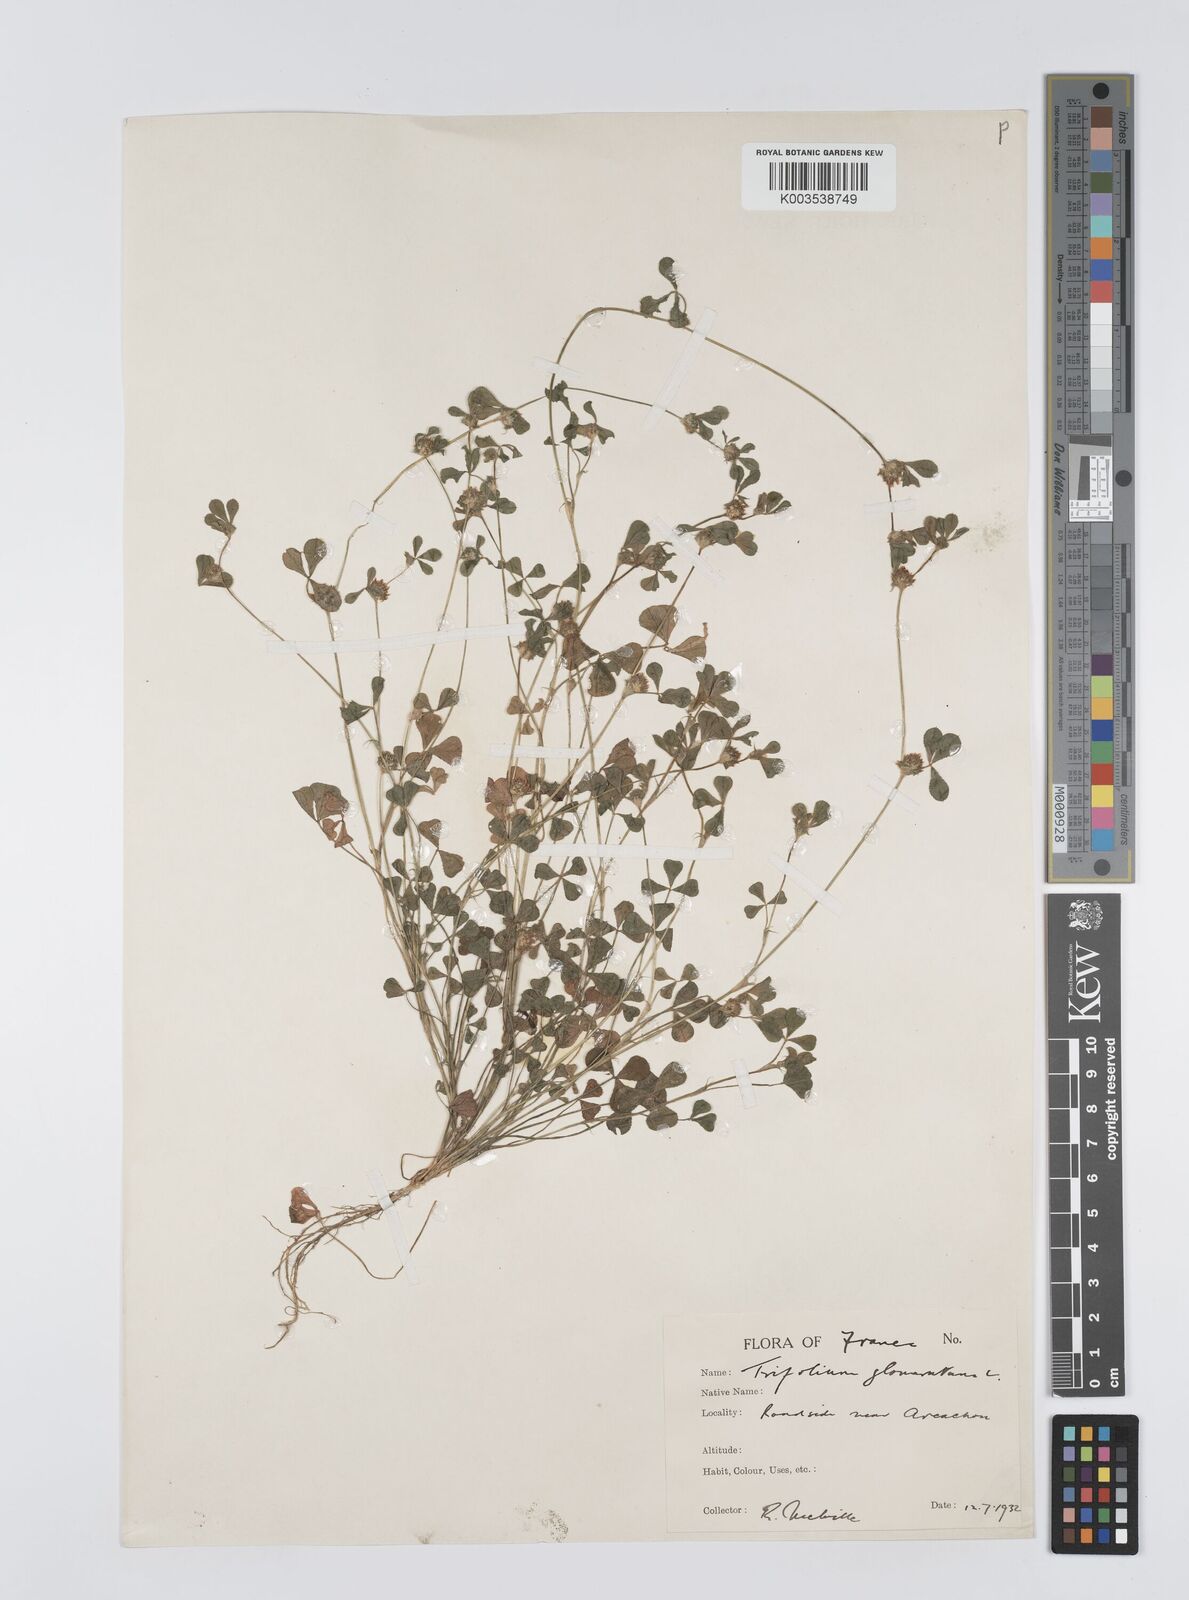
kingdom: Plantae
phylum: Tracheophyta
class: Magnoliopsida
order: Fabales
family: Fabaceae
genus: Trifolium
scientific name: Trifolium glomeratum
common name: Clustered clover
